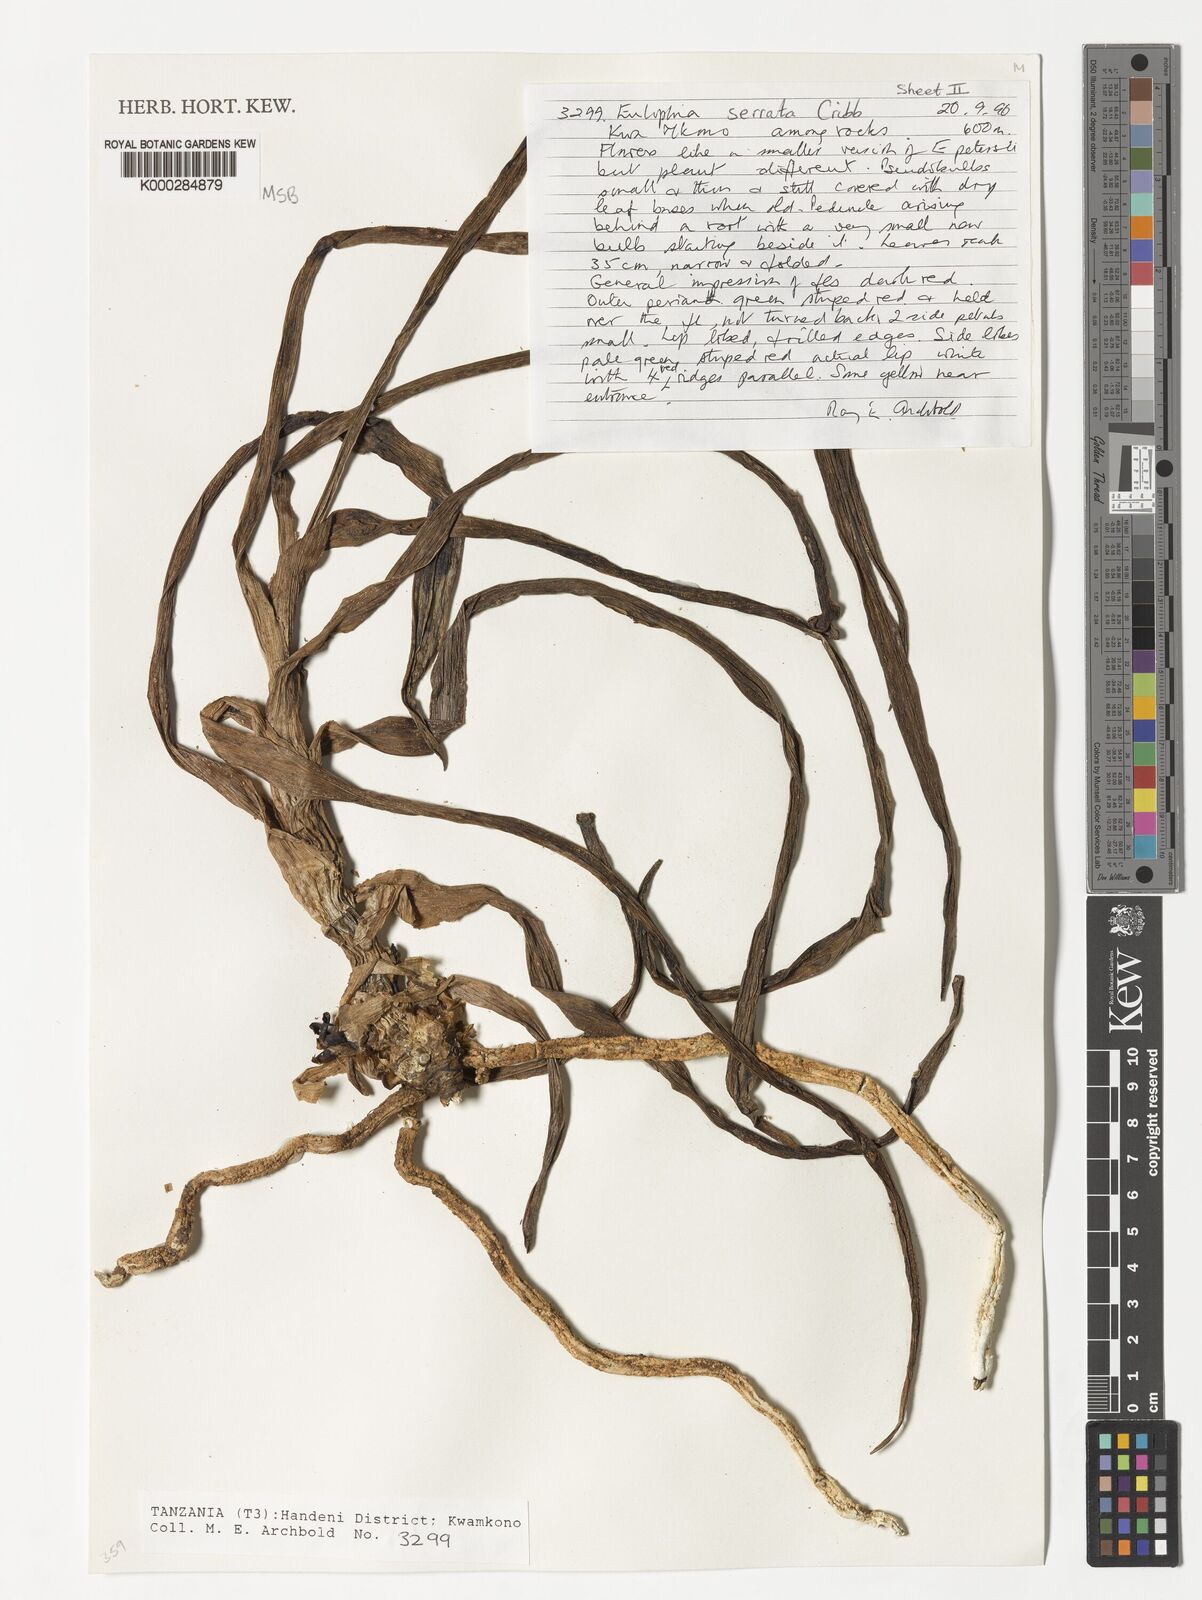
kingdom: Plantae
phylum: Tracheophyta
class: Liliopsida
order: Asparagales
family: Orchidaceae
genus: Eulophia
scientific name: Eulophia stricta
